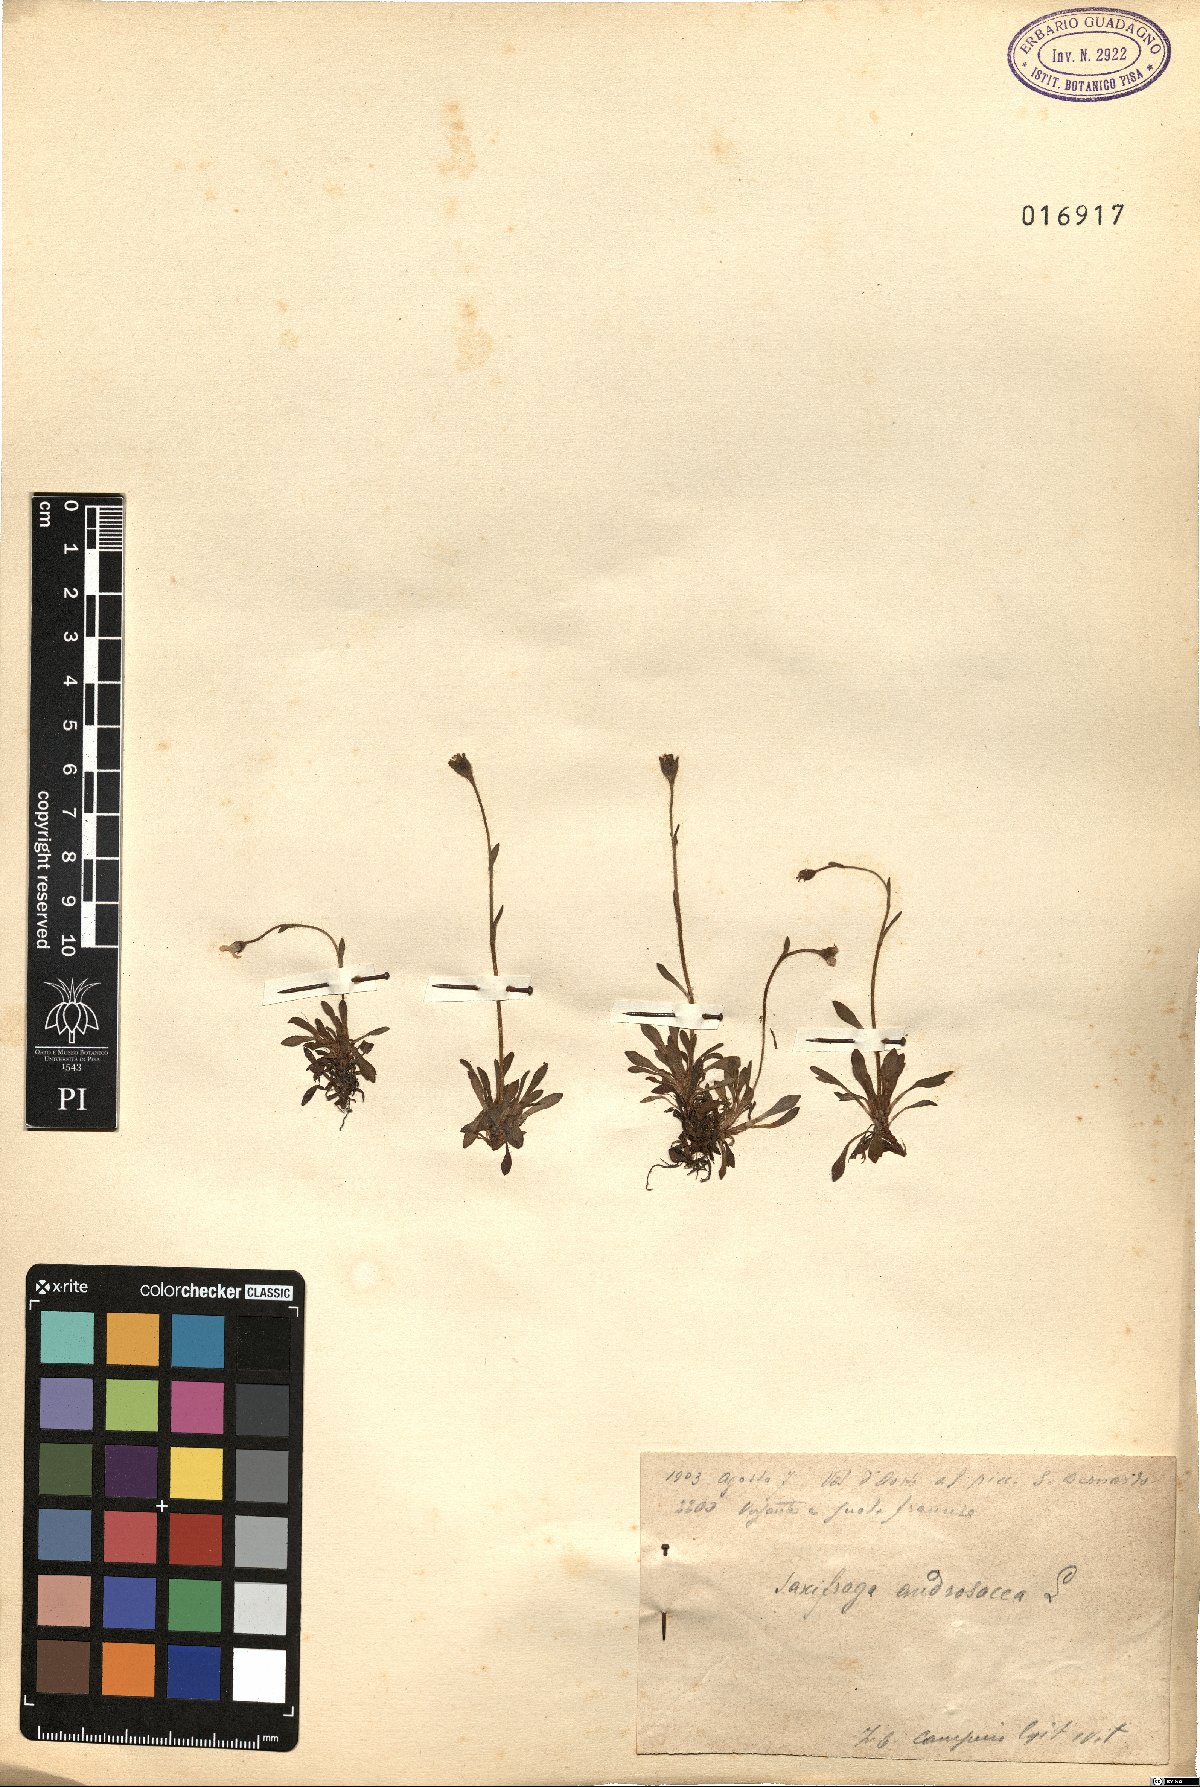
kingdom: Plantae
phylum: Tracheophyta
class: Magnoliopsida
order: Saxifragales
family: Saxifragaceae
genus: Saxifraga
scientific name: Saxifraga androsacea
